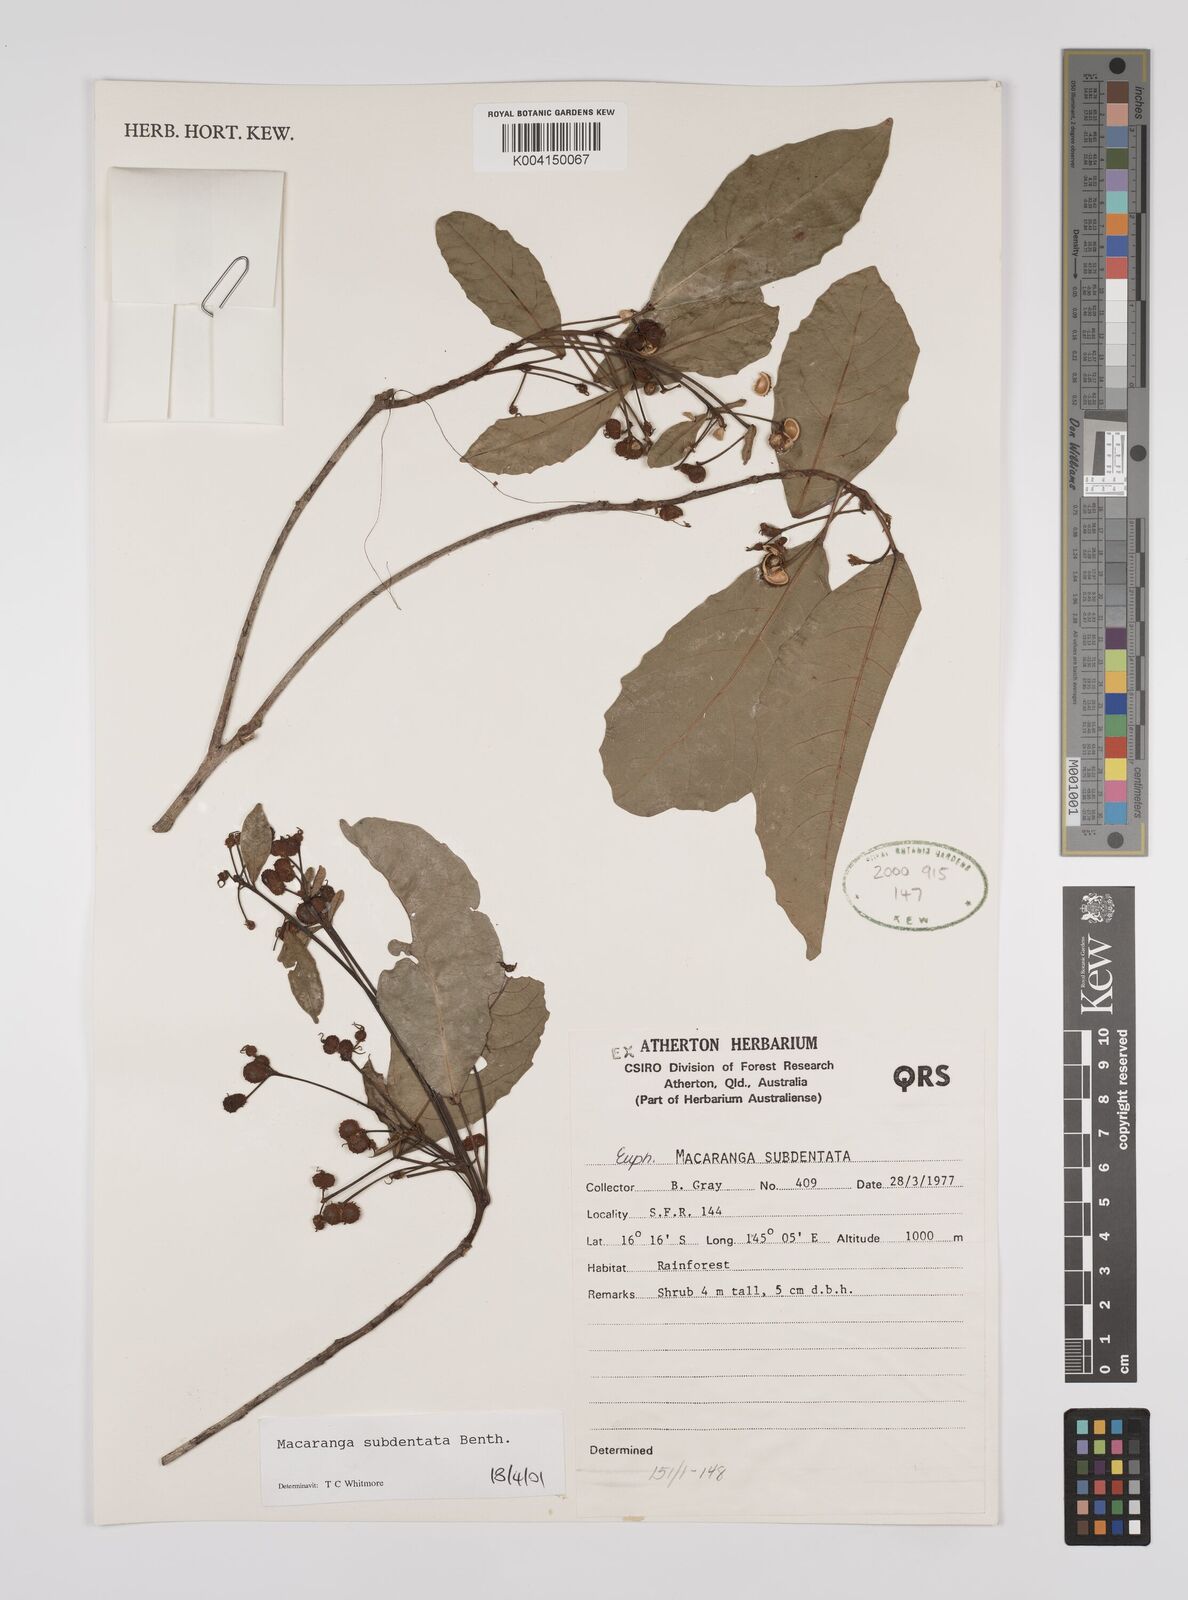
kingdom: Plantae
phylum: Tracheophyta
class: Magnoliopsida
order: Malpighiales
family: Euphorbiaceae
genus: Macaranga
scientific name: Macaranga subdentata
